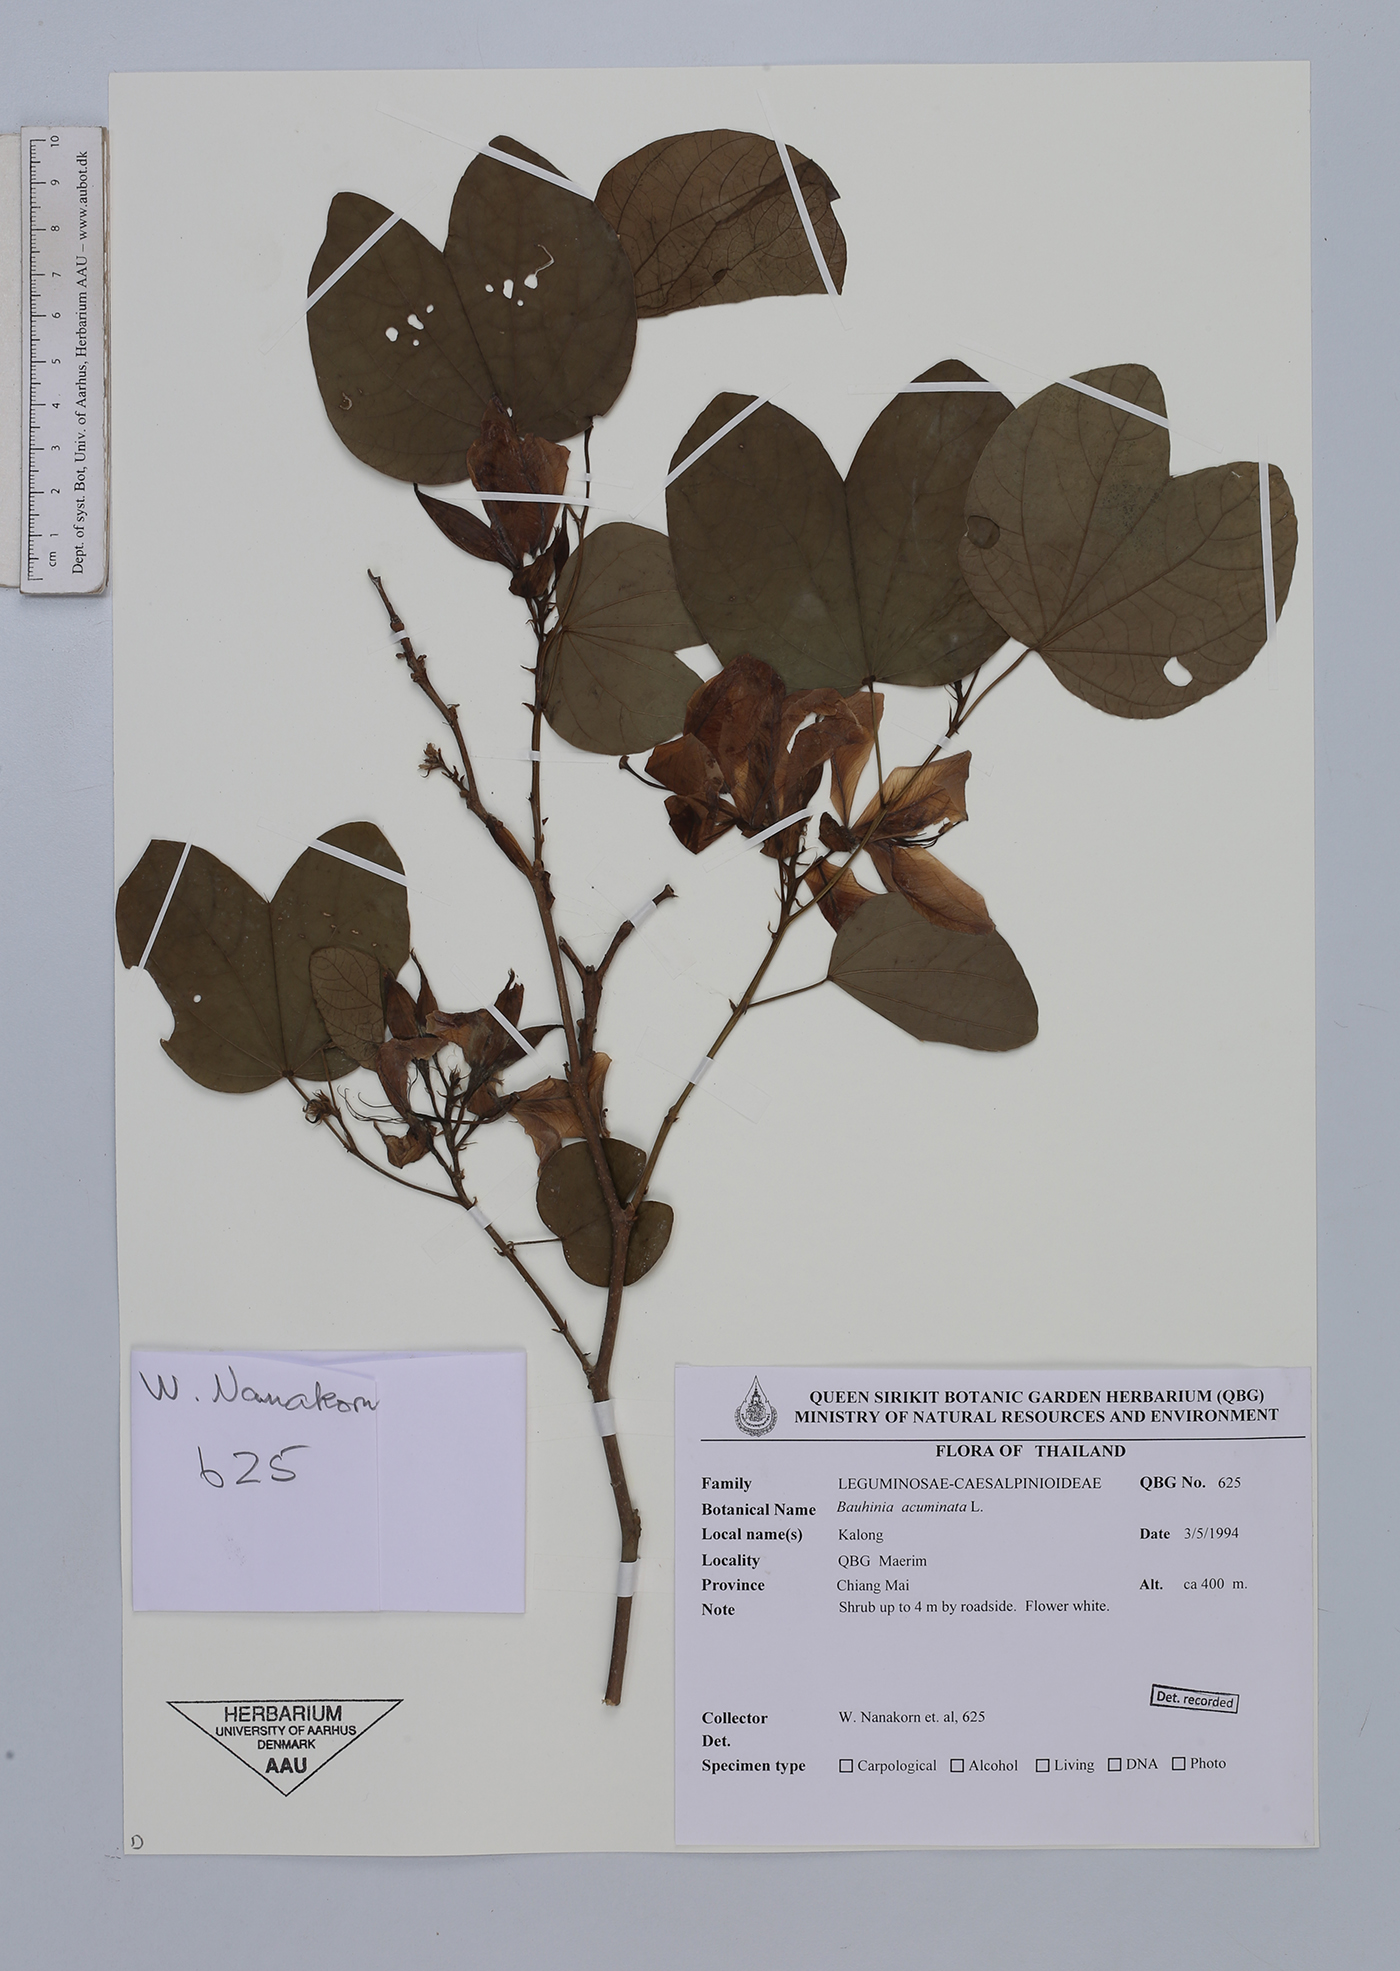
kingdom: Plantae
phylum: Tracheophyta
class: Magnoliopsida
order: Fabales
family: Fabaceae
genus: Bauhinia
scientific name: Bauhinia acuminata
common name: Dwarf white bauhinia
